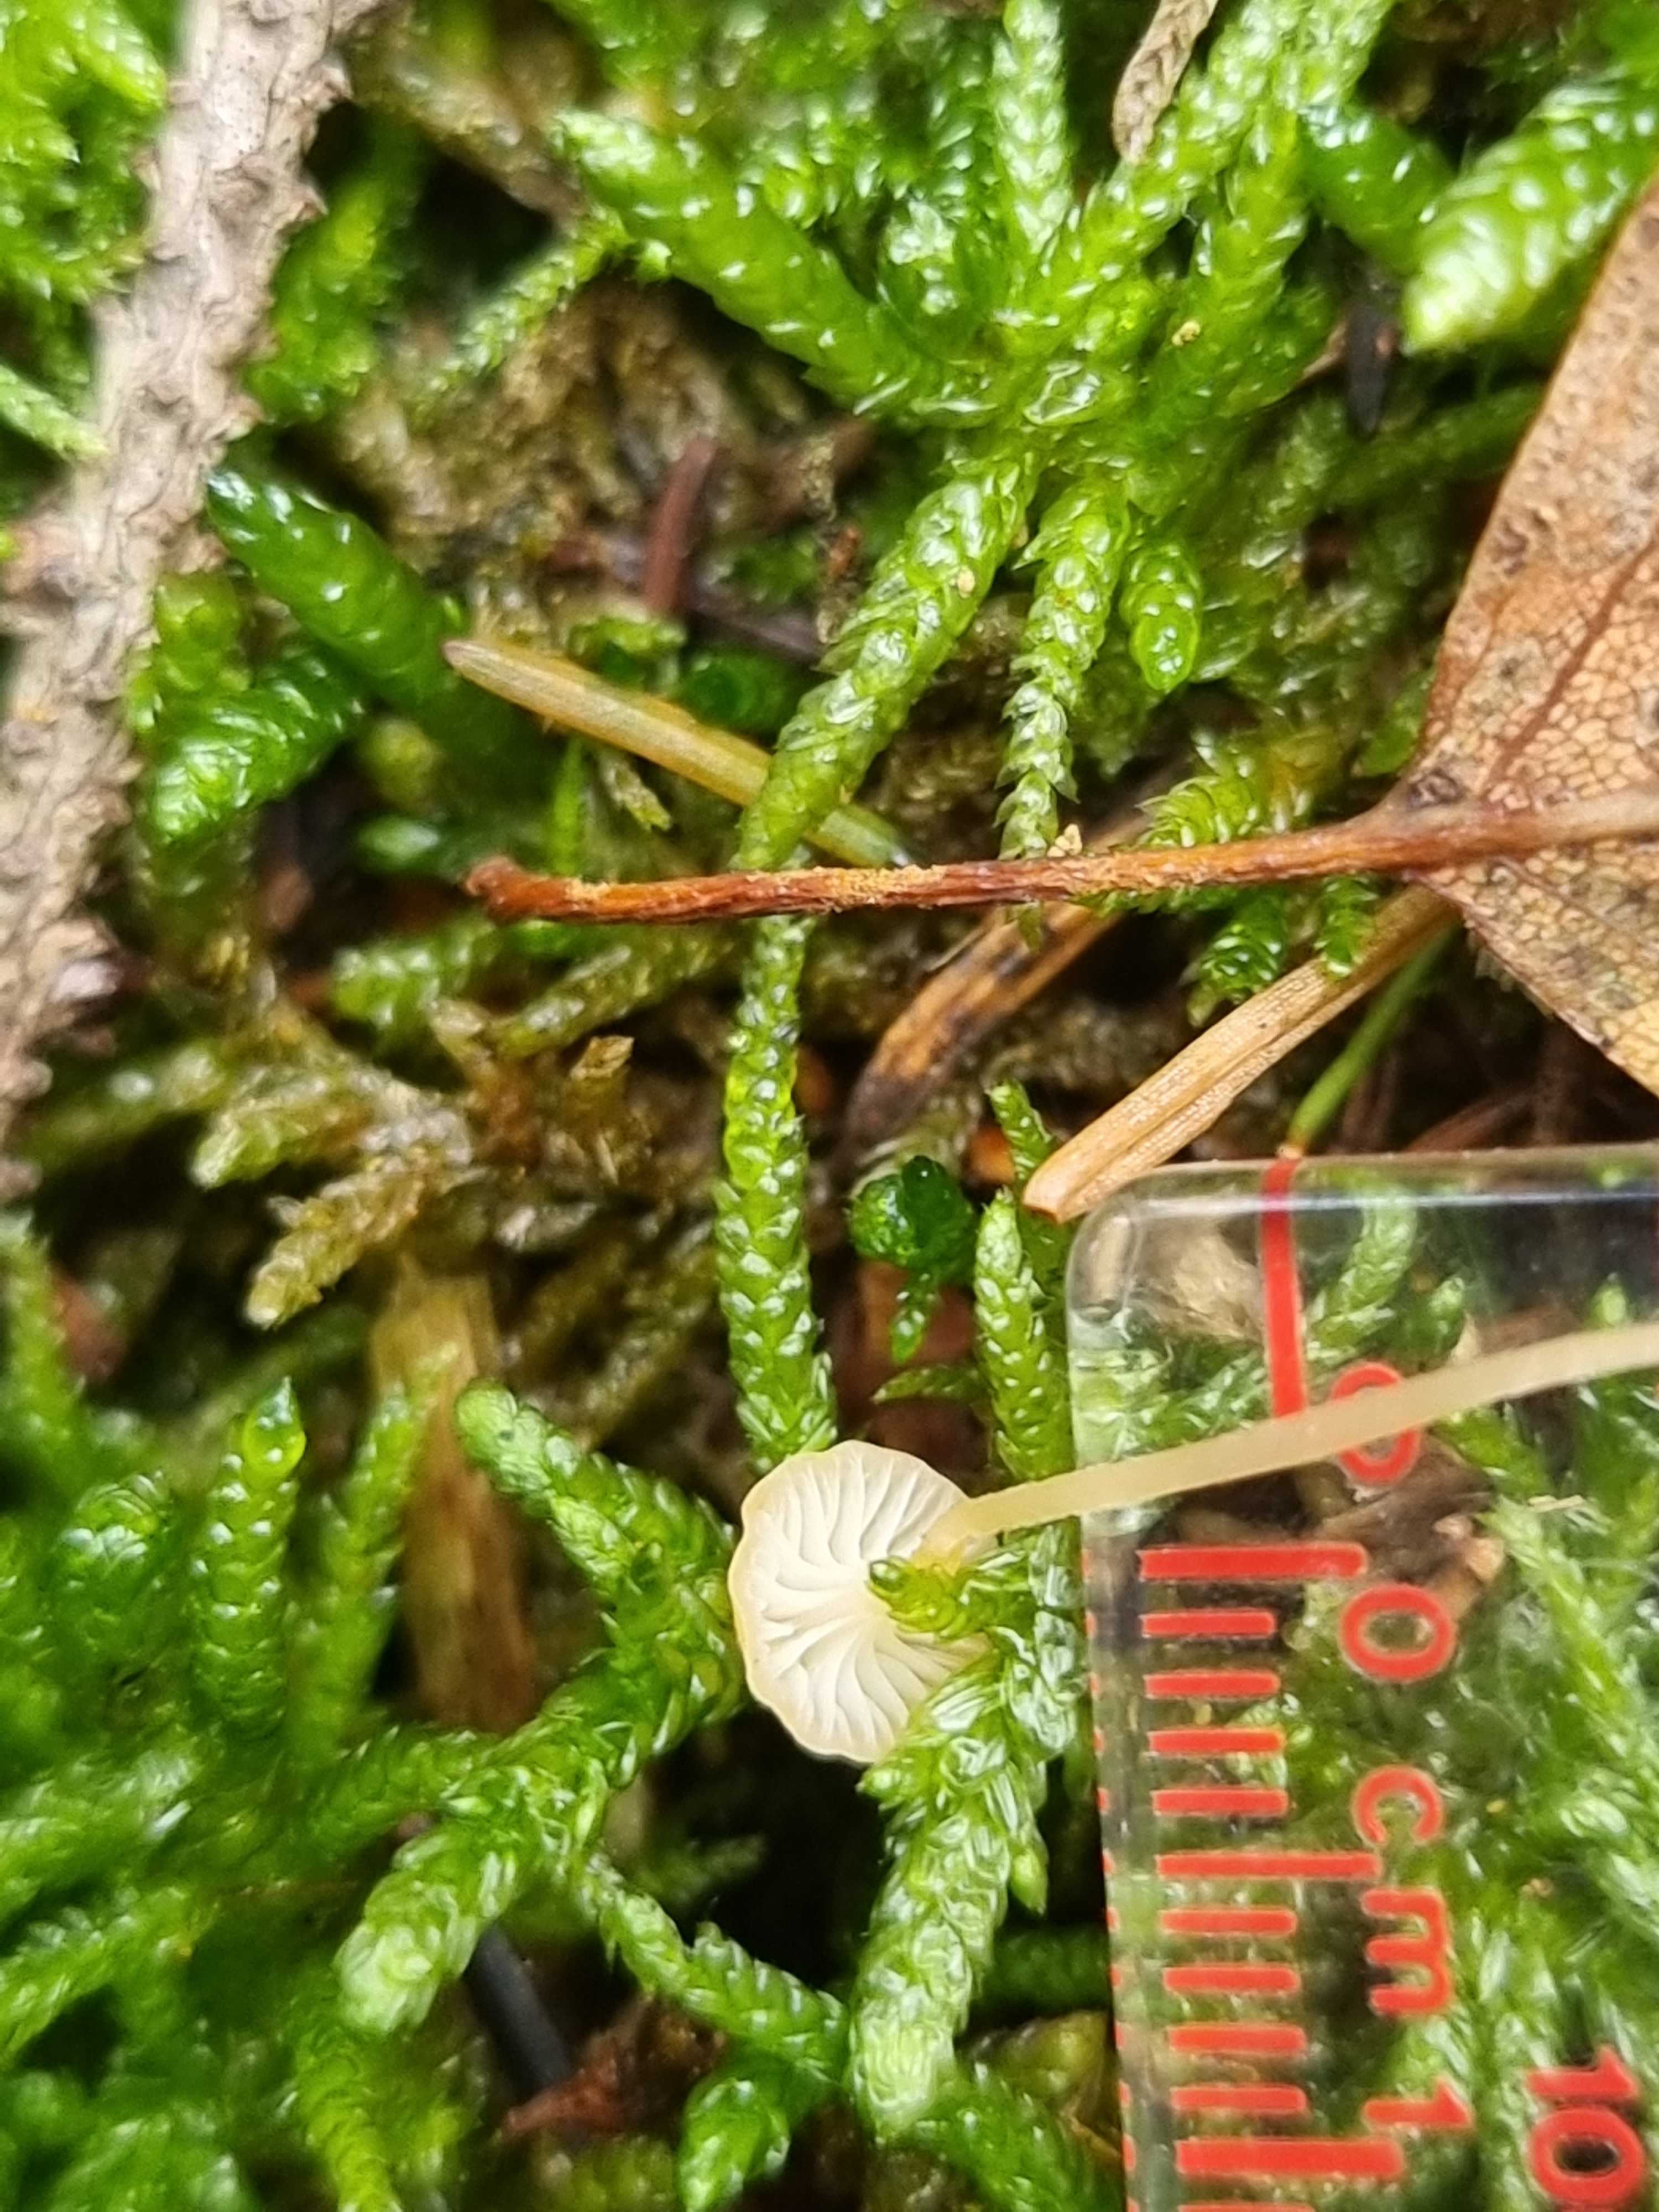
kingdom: Fungi
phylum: Basidiomycota
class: Agaricomycetes
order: Hymenochaetales
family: Rickenellaceae
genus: Rickenella
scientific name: Rickenella fibula
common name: orange mosnavlehat
